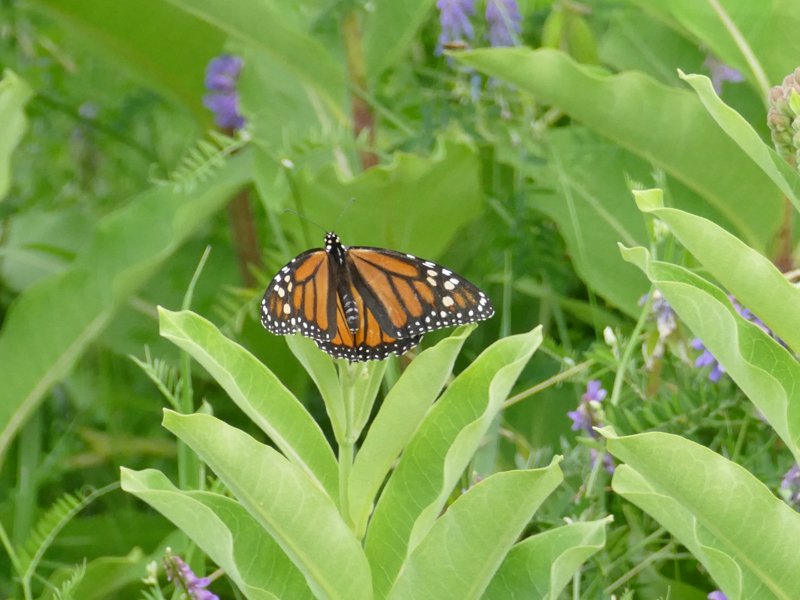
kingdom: Animalia
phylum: Arthropoda
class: Insecta
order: Lepidoptera
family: Nymphalidae
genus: Danaus
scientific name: Danaus plexippus
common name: Monarch
